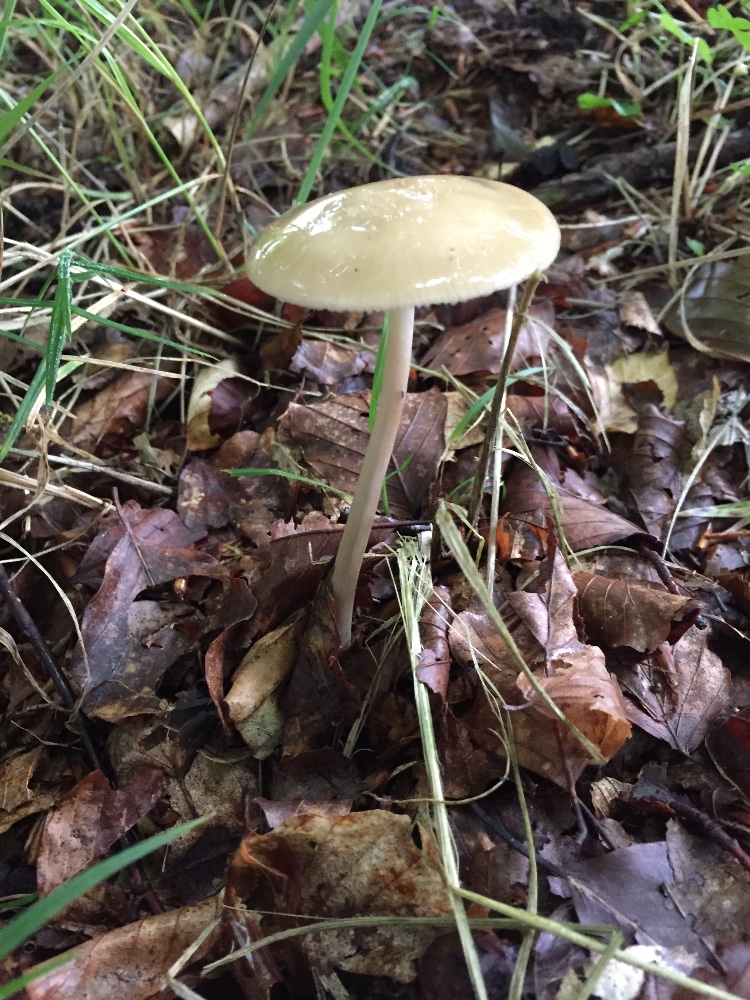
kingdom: Fungi
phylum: Basidiomycota
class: Agaricomycetes
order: Agaricales
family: Physalacriaceae
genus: Hymenopellis
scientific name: Hymenopellis radicata
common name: almindelig pælerodshat
